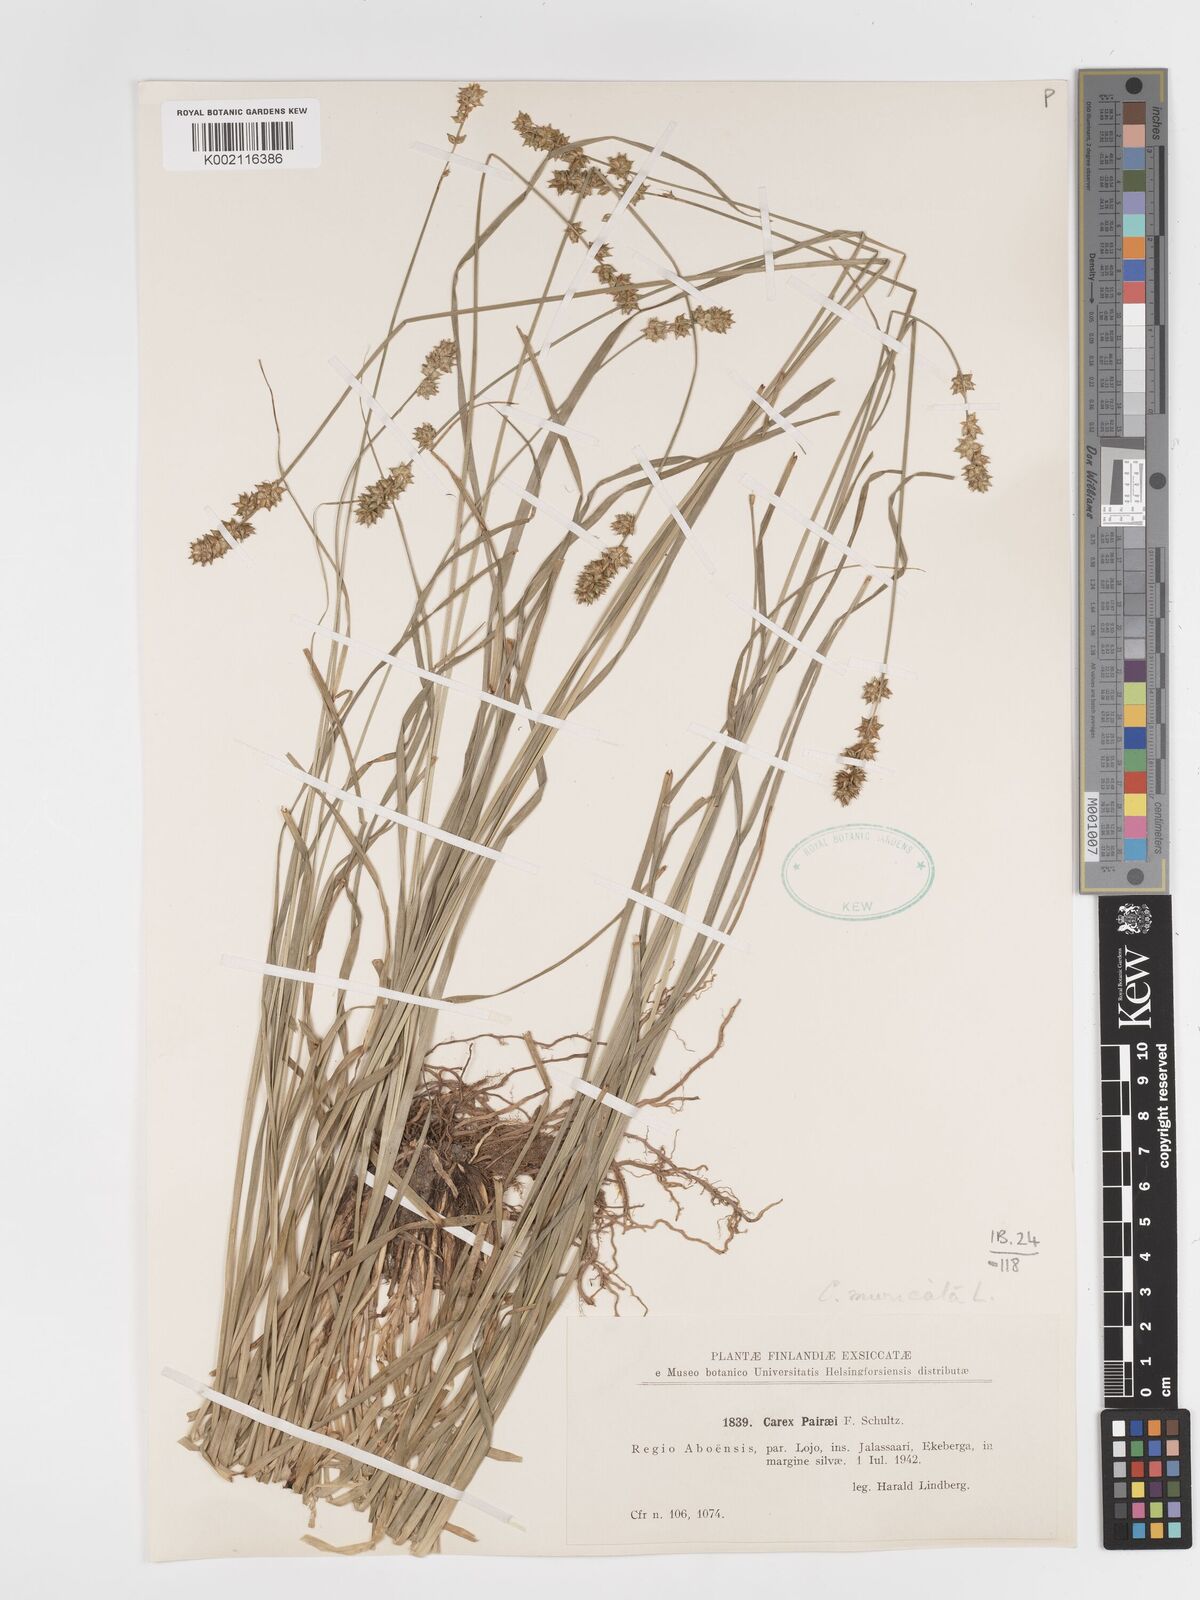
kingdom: Plantae
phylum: Tracheophyta
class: Liliopsida
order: Poales
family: Cyperaceae
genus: Carex
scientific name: Carex muricata
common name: Rough sedge
